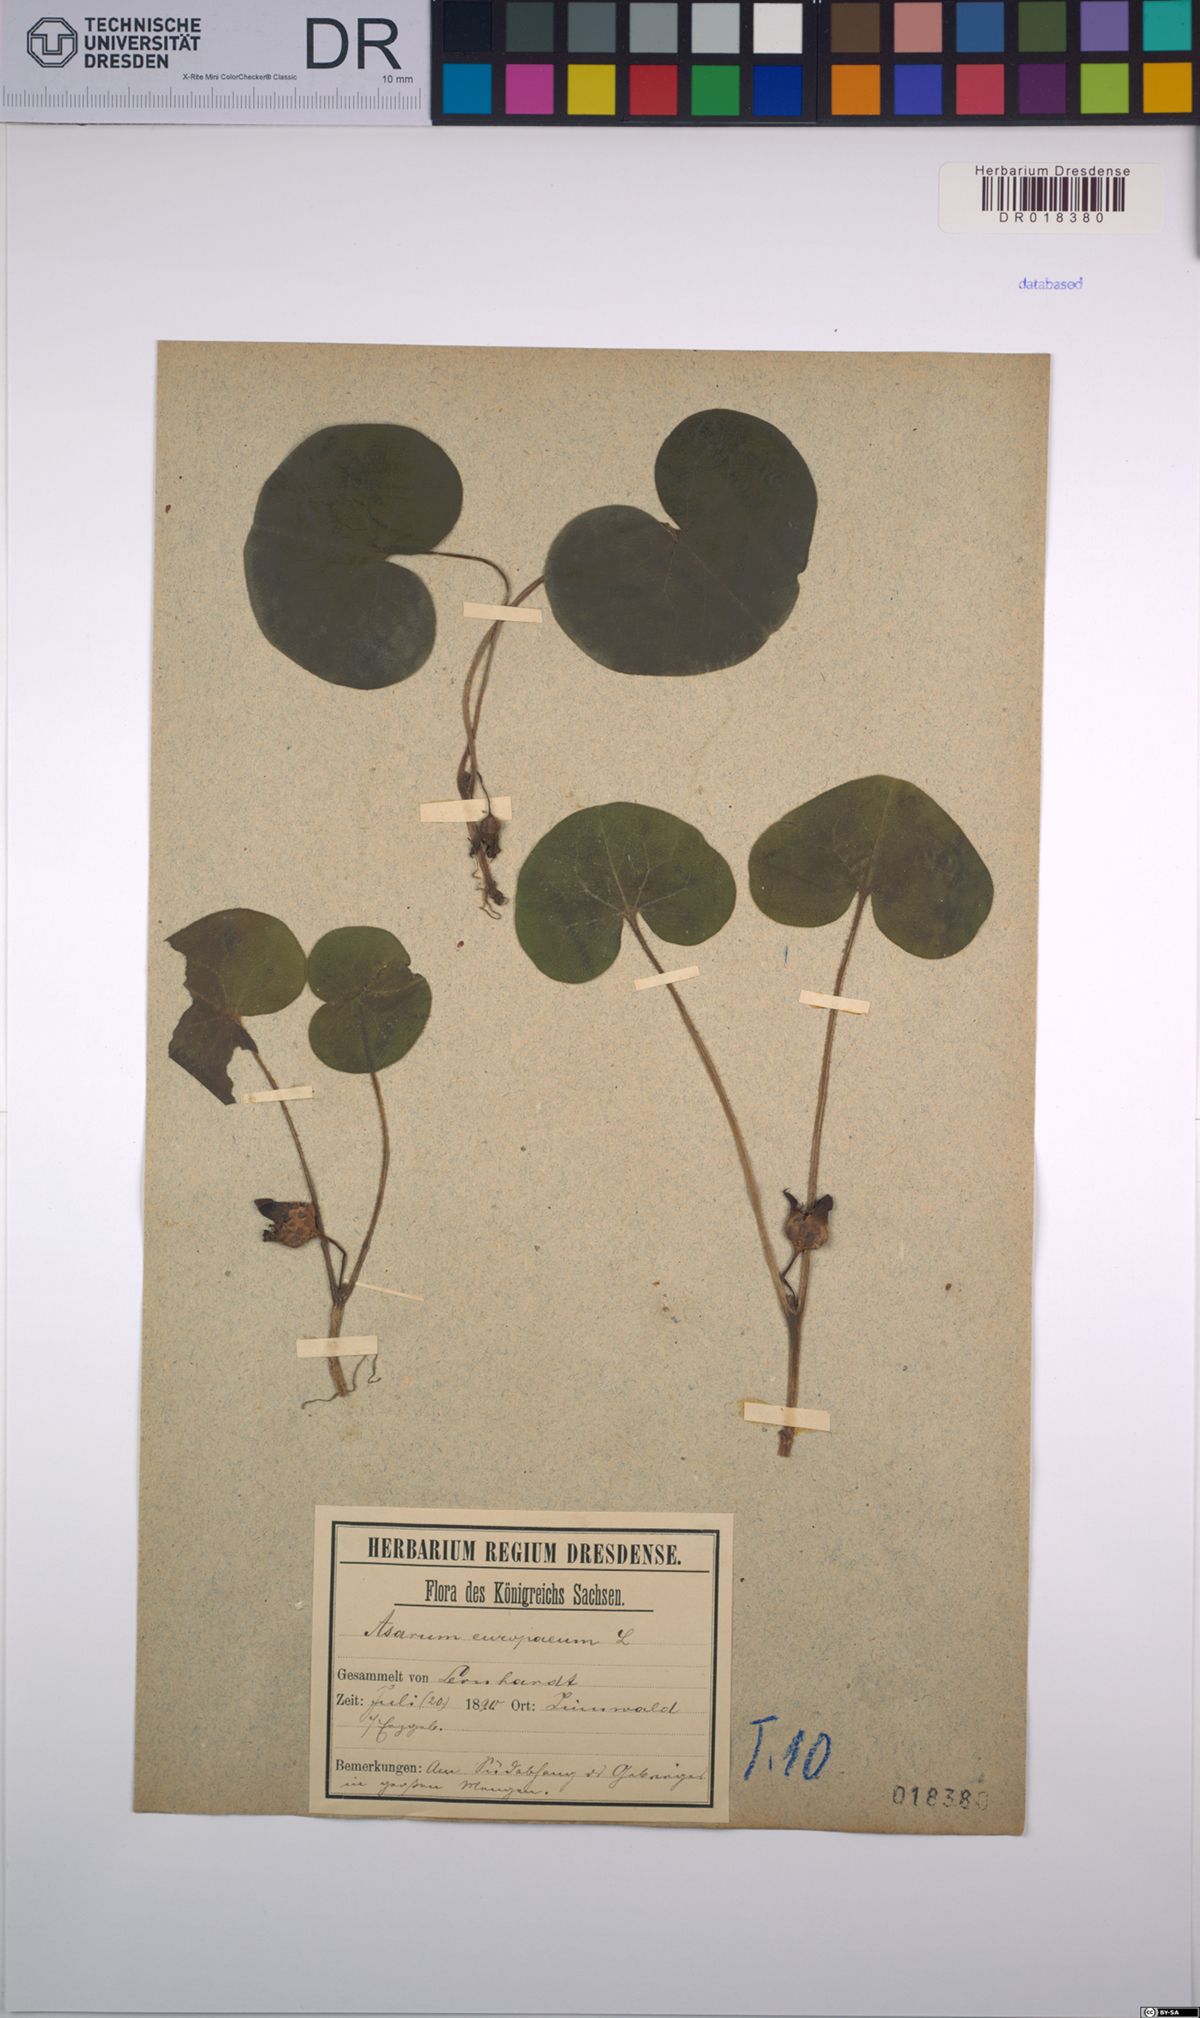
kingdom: Plantae
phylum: Tracheophyta
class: Magnoliopsida
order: Piperales
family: Aristolochiaceae
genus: Asarum
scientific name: Asarum europaeum
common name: Asarabacca
